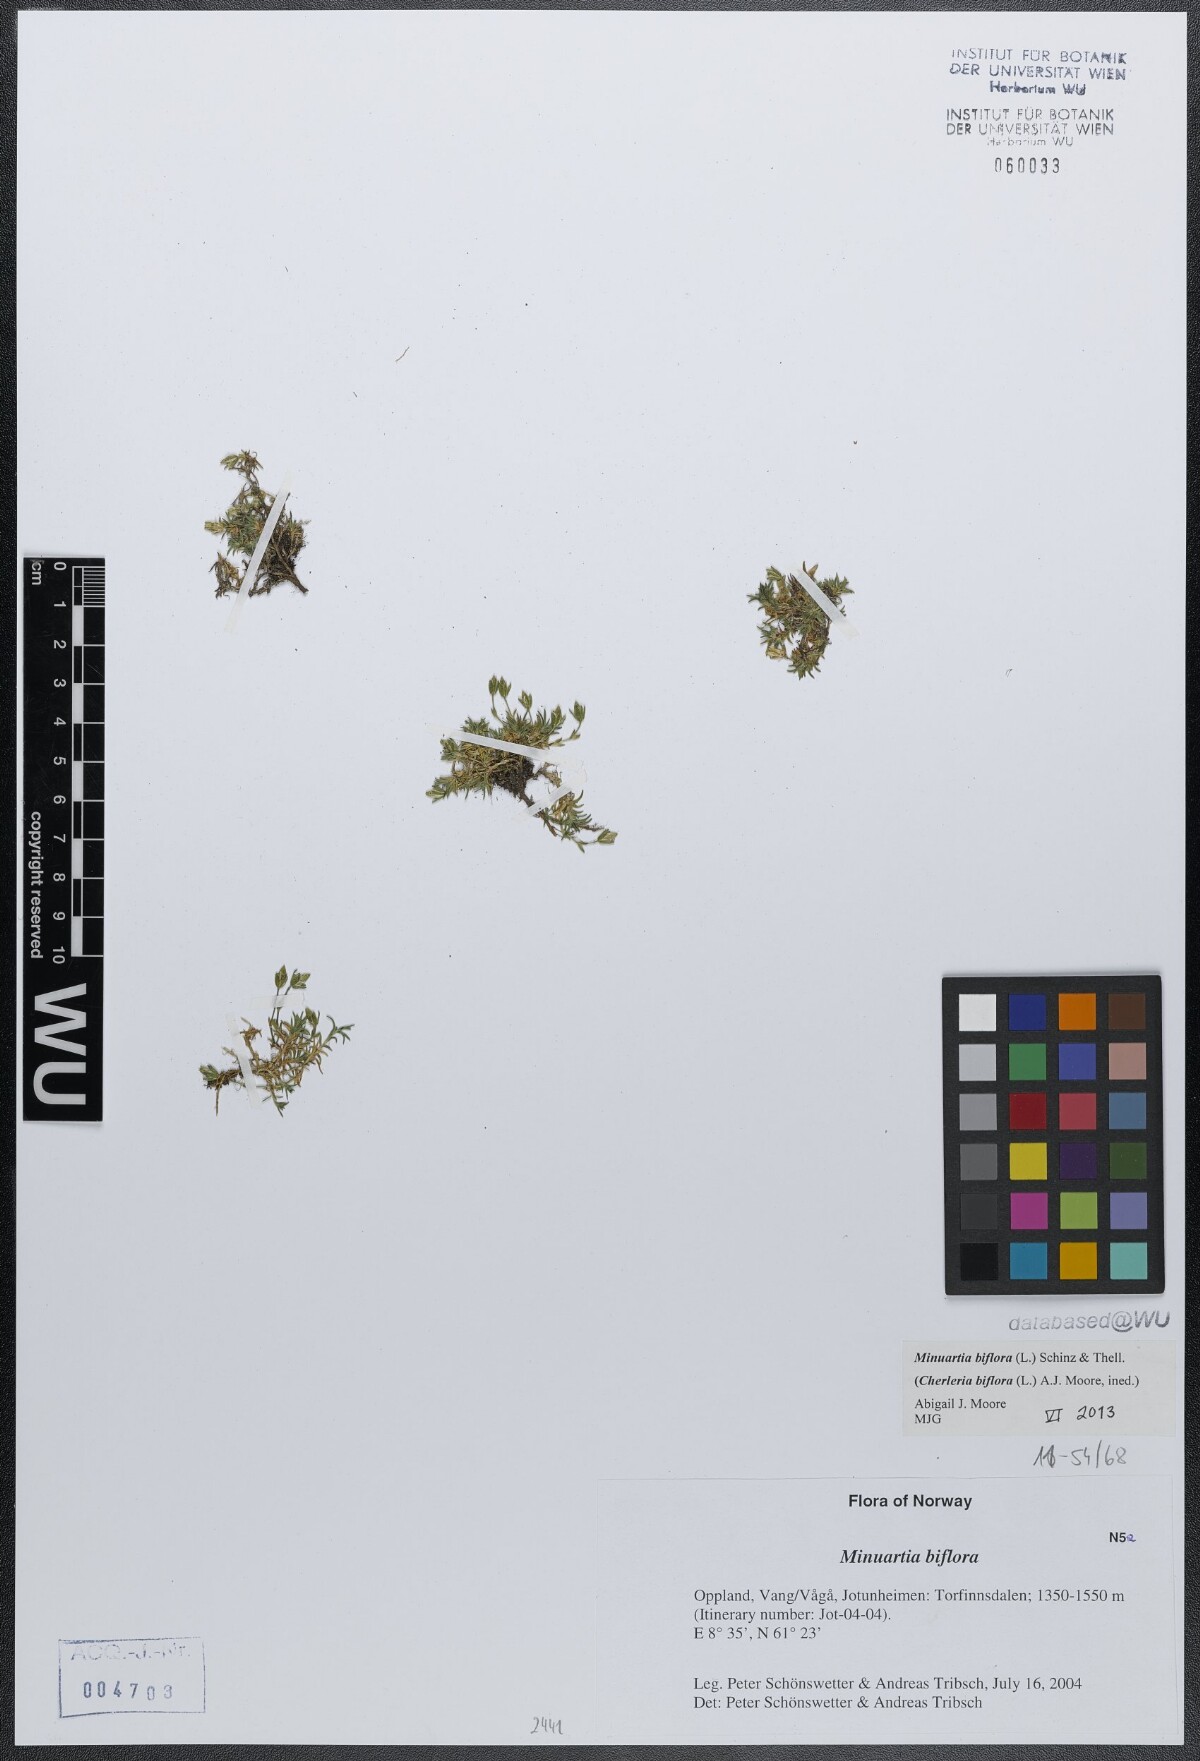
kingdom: Plantae
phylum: Tracheophyta
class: Magnoliopsida
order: Caryophyllales
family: Caryophyllaceae
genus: Cherleria
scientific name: Cherleria biflora
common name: Mountain sandwort
